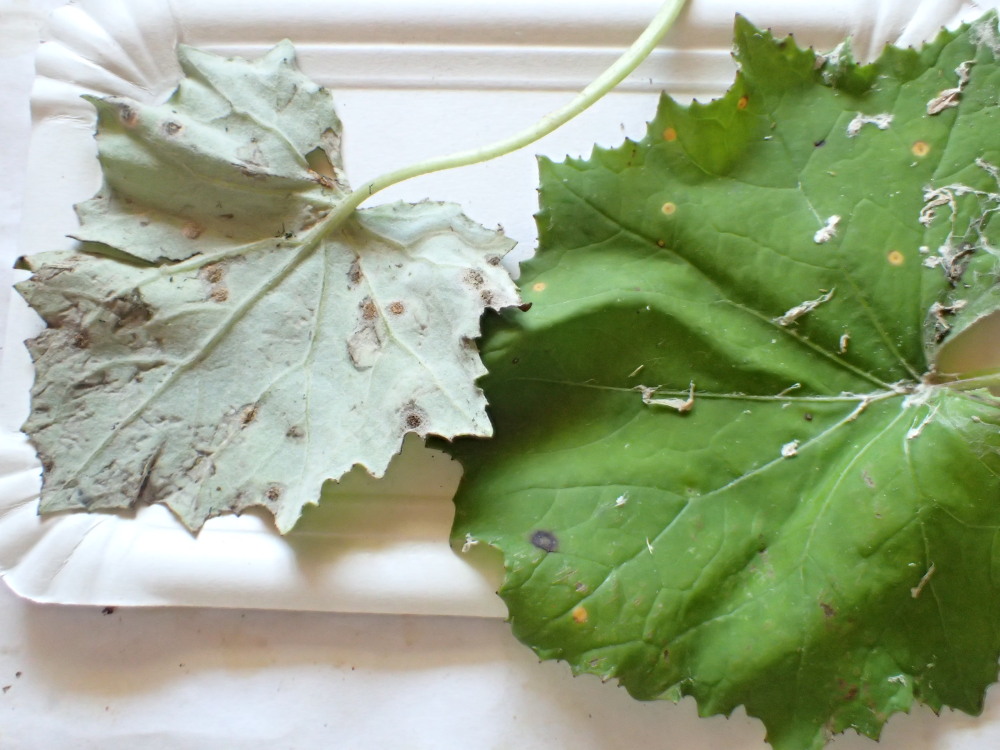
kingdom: Fungi
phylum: Basidiomycota
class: Pucciniomycetes
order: Pucciniales
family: Pucciniaceae
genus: Puccinia
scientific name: Puccinia poarum
